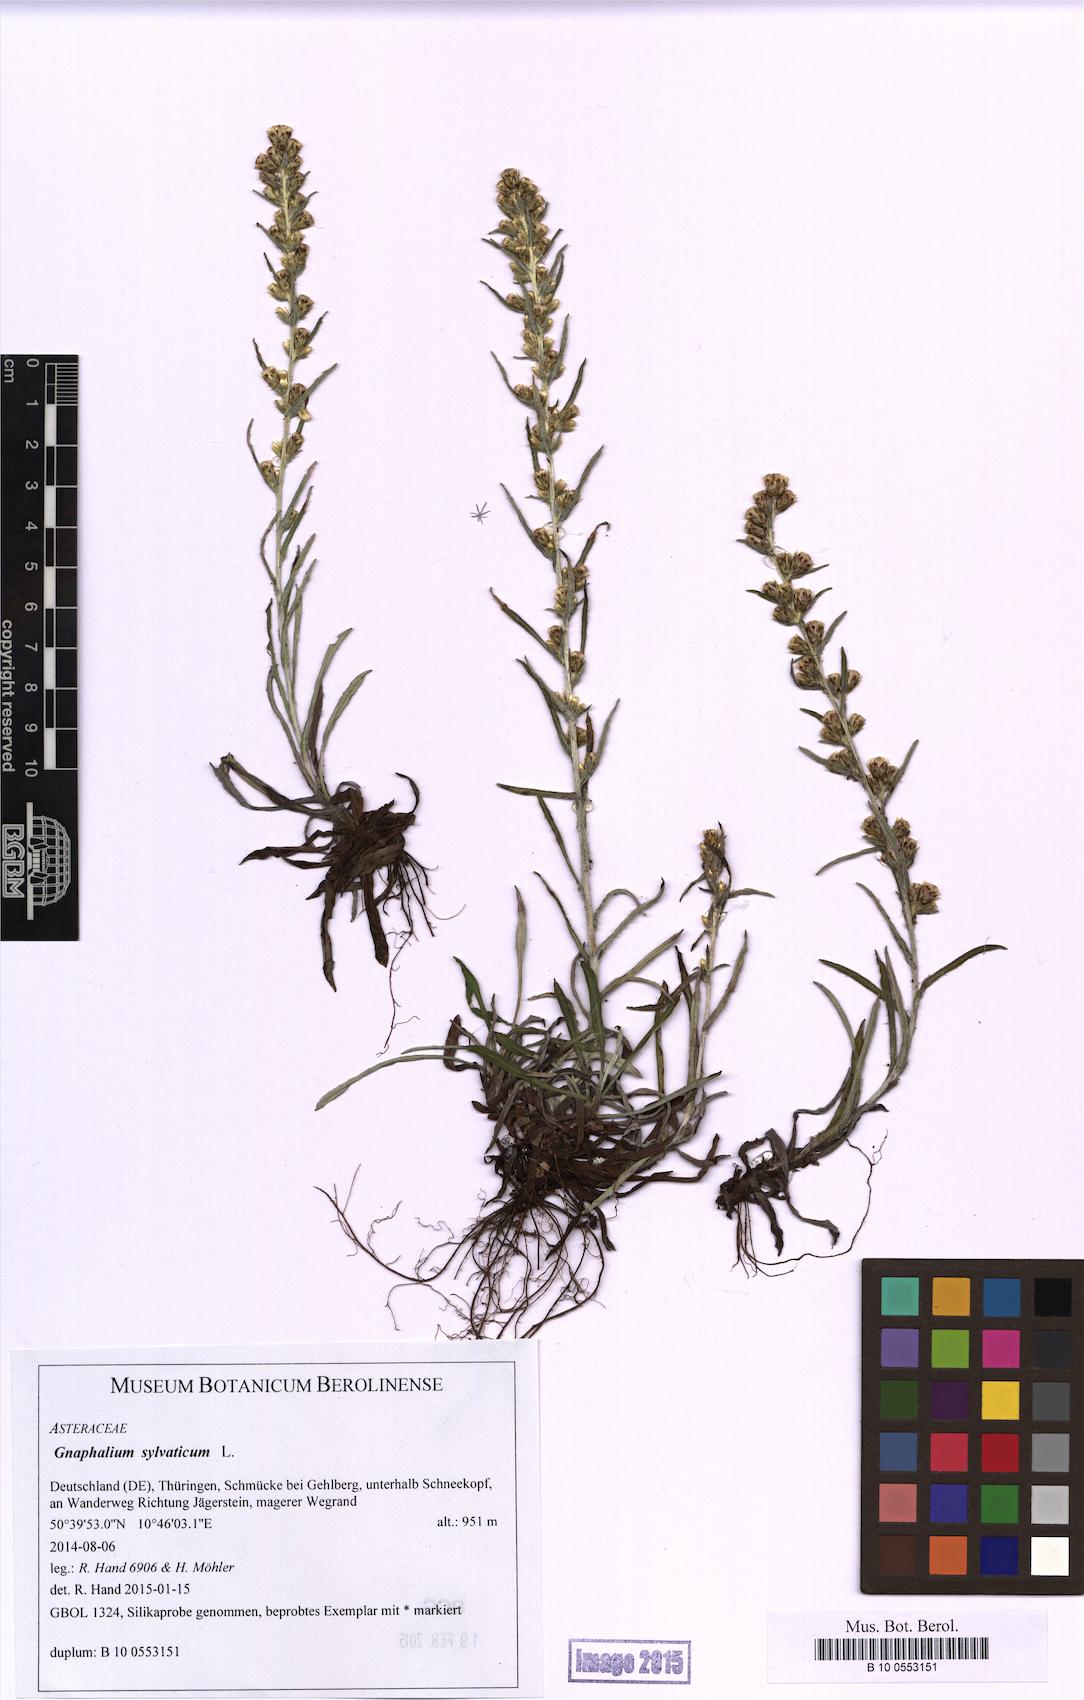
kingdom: Plantae
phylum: Tracheophyta
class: Magnoliopsida
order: Asterales
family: Asteraceae
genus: Omalotheca
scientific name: Omalotheca sylvatica
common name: Heath cudweed
